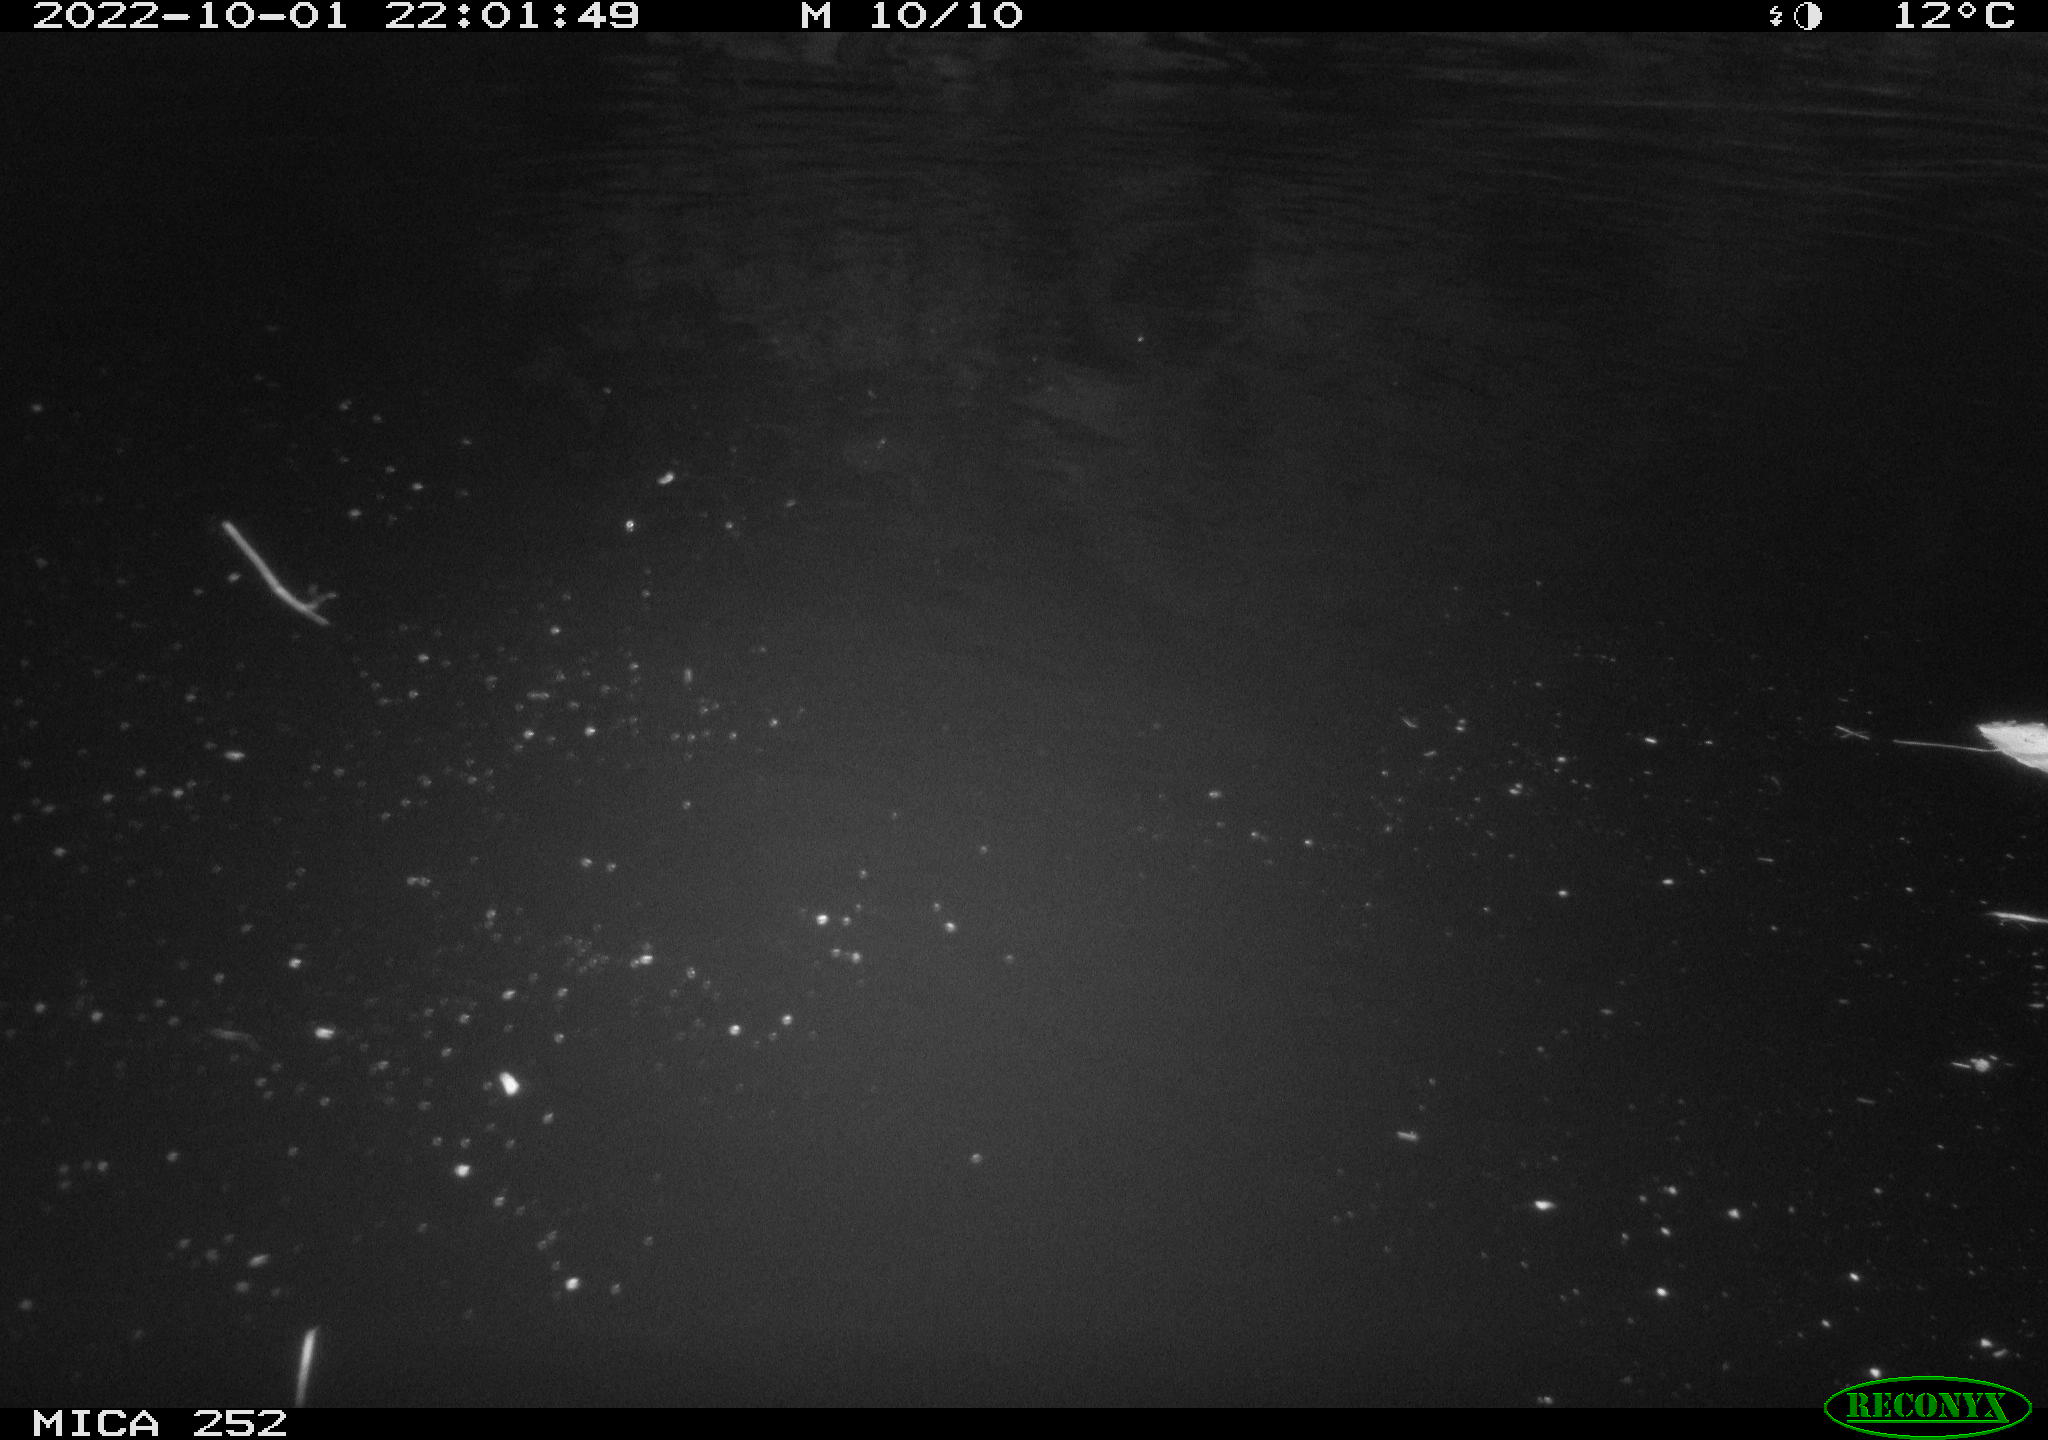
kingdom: Animalia
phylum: Chordata
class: Mammalia
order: Rodentia
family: Castoridae
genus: Castor
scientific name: Castor fiber
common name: Eurasian beaver
